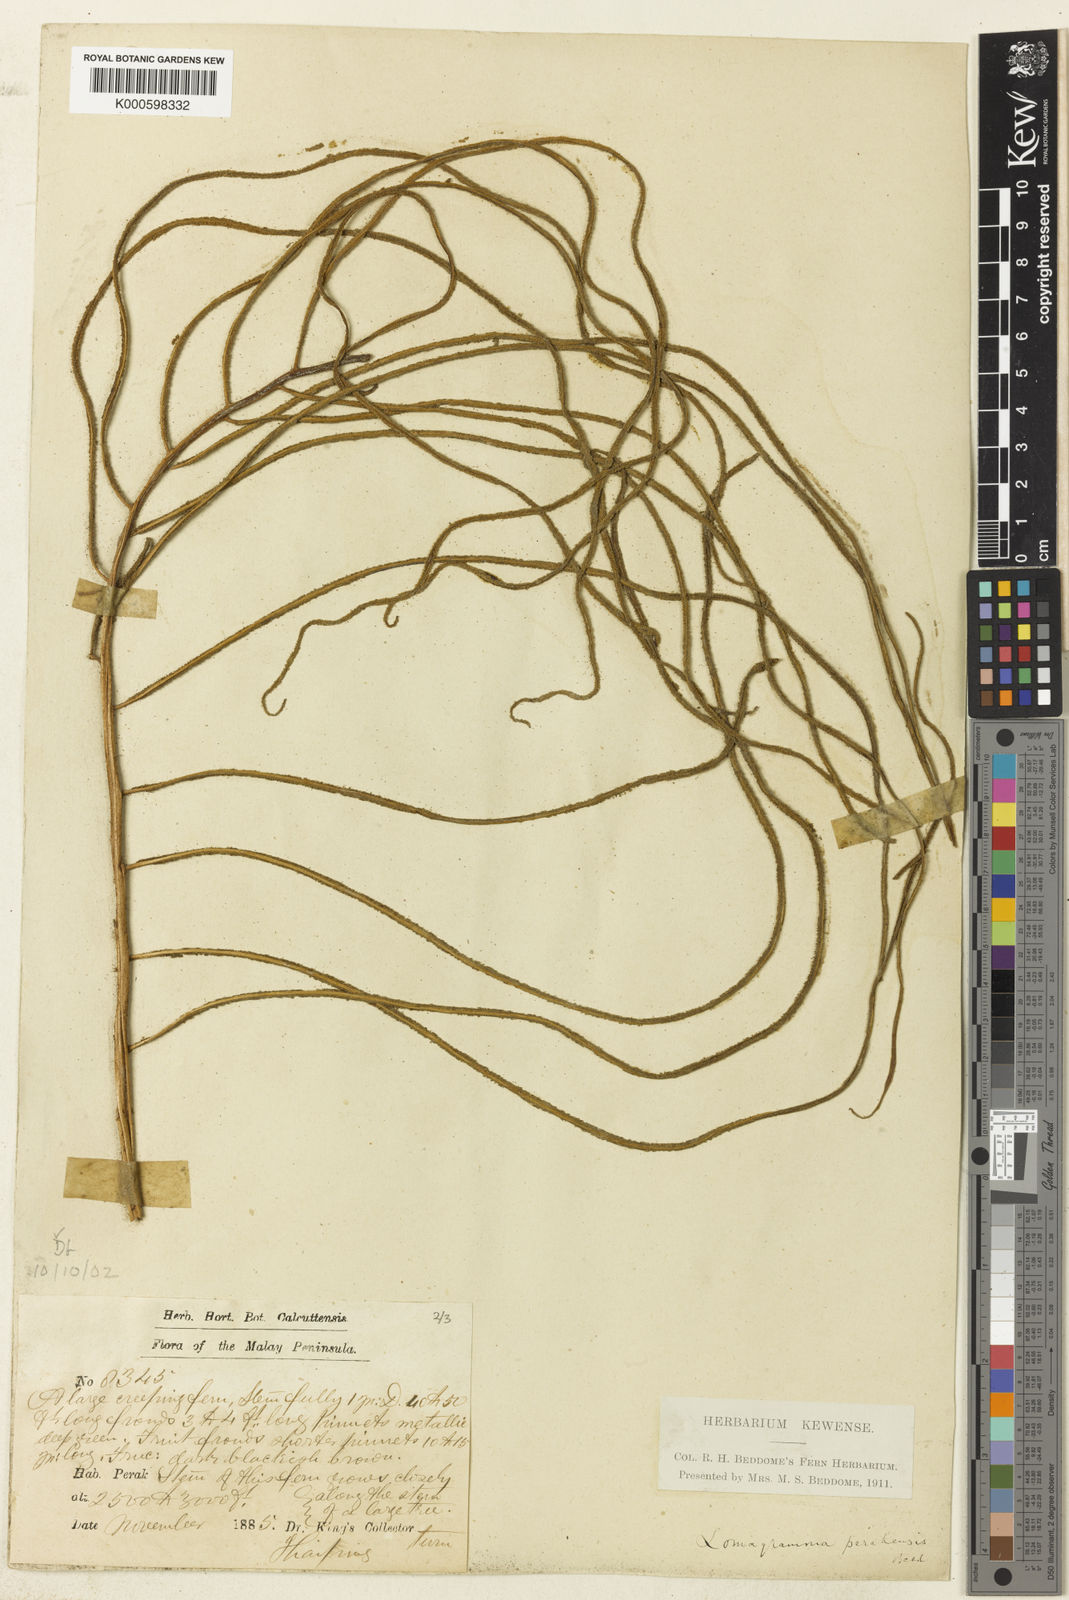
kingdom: Plantae
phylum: Tracheophyta
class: Polypodiopsida
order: Polypodiales
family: Dryopteridaceae
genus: Lomagramma
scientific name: Lomagramma perakensis
